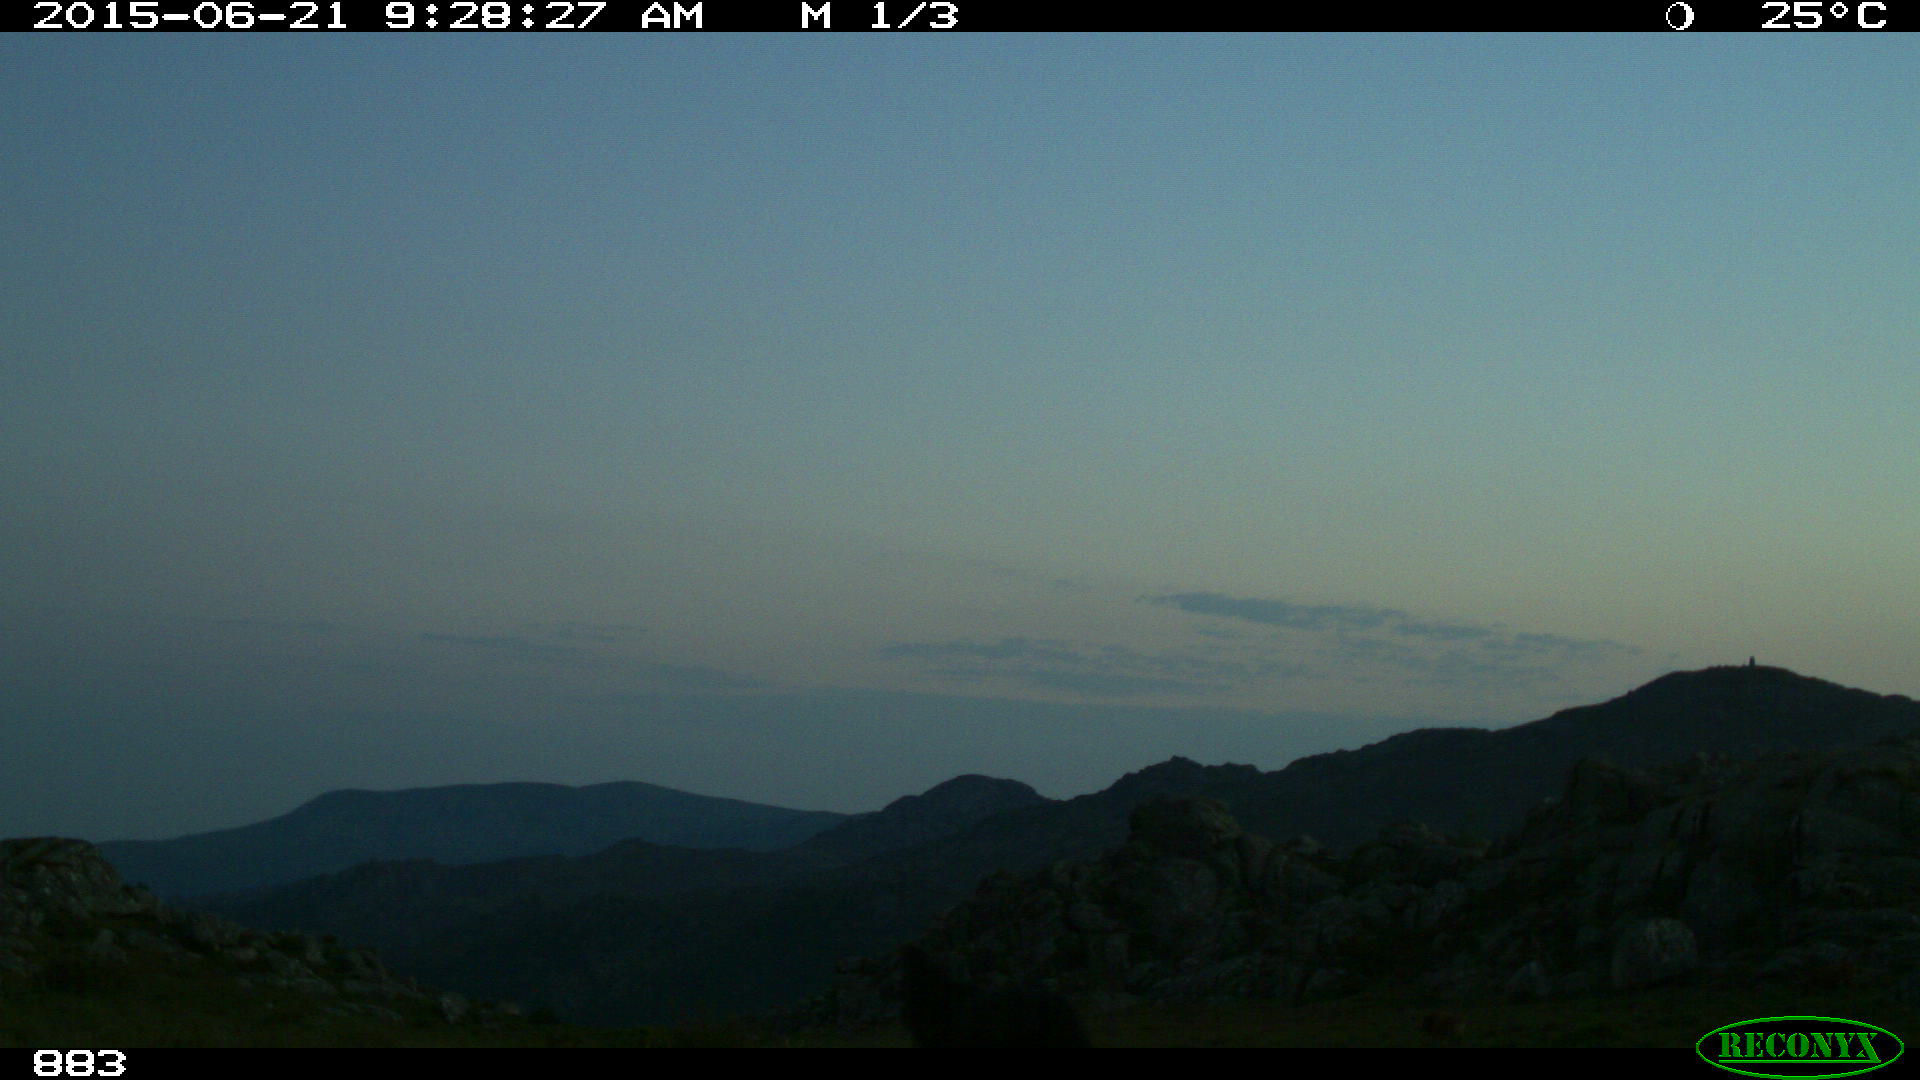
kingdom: Animalia
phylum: Chordata
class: Mammalia
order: Perissodactyla
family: Equidae
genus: Equus
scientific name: Equus caballus
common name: Horse
